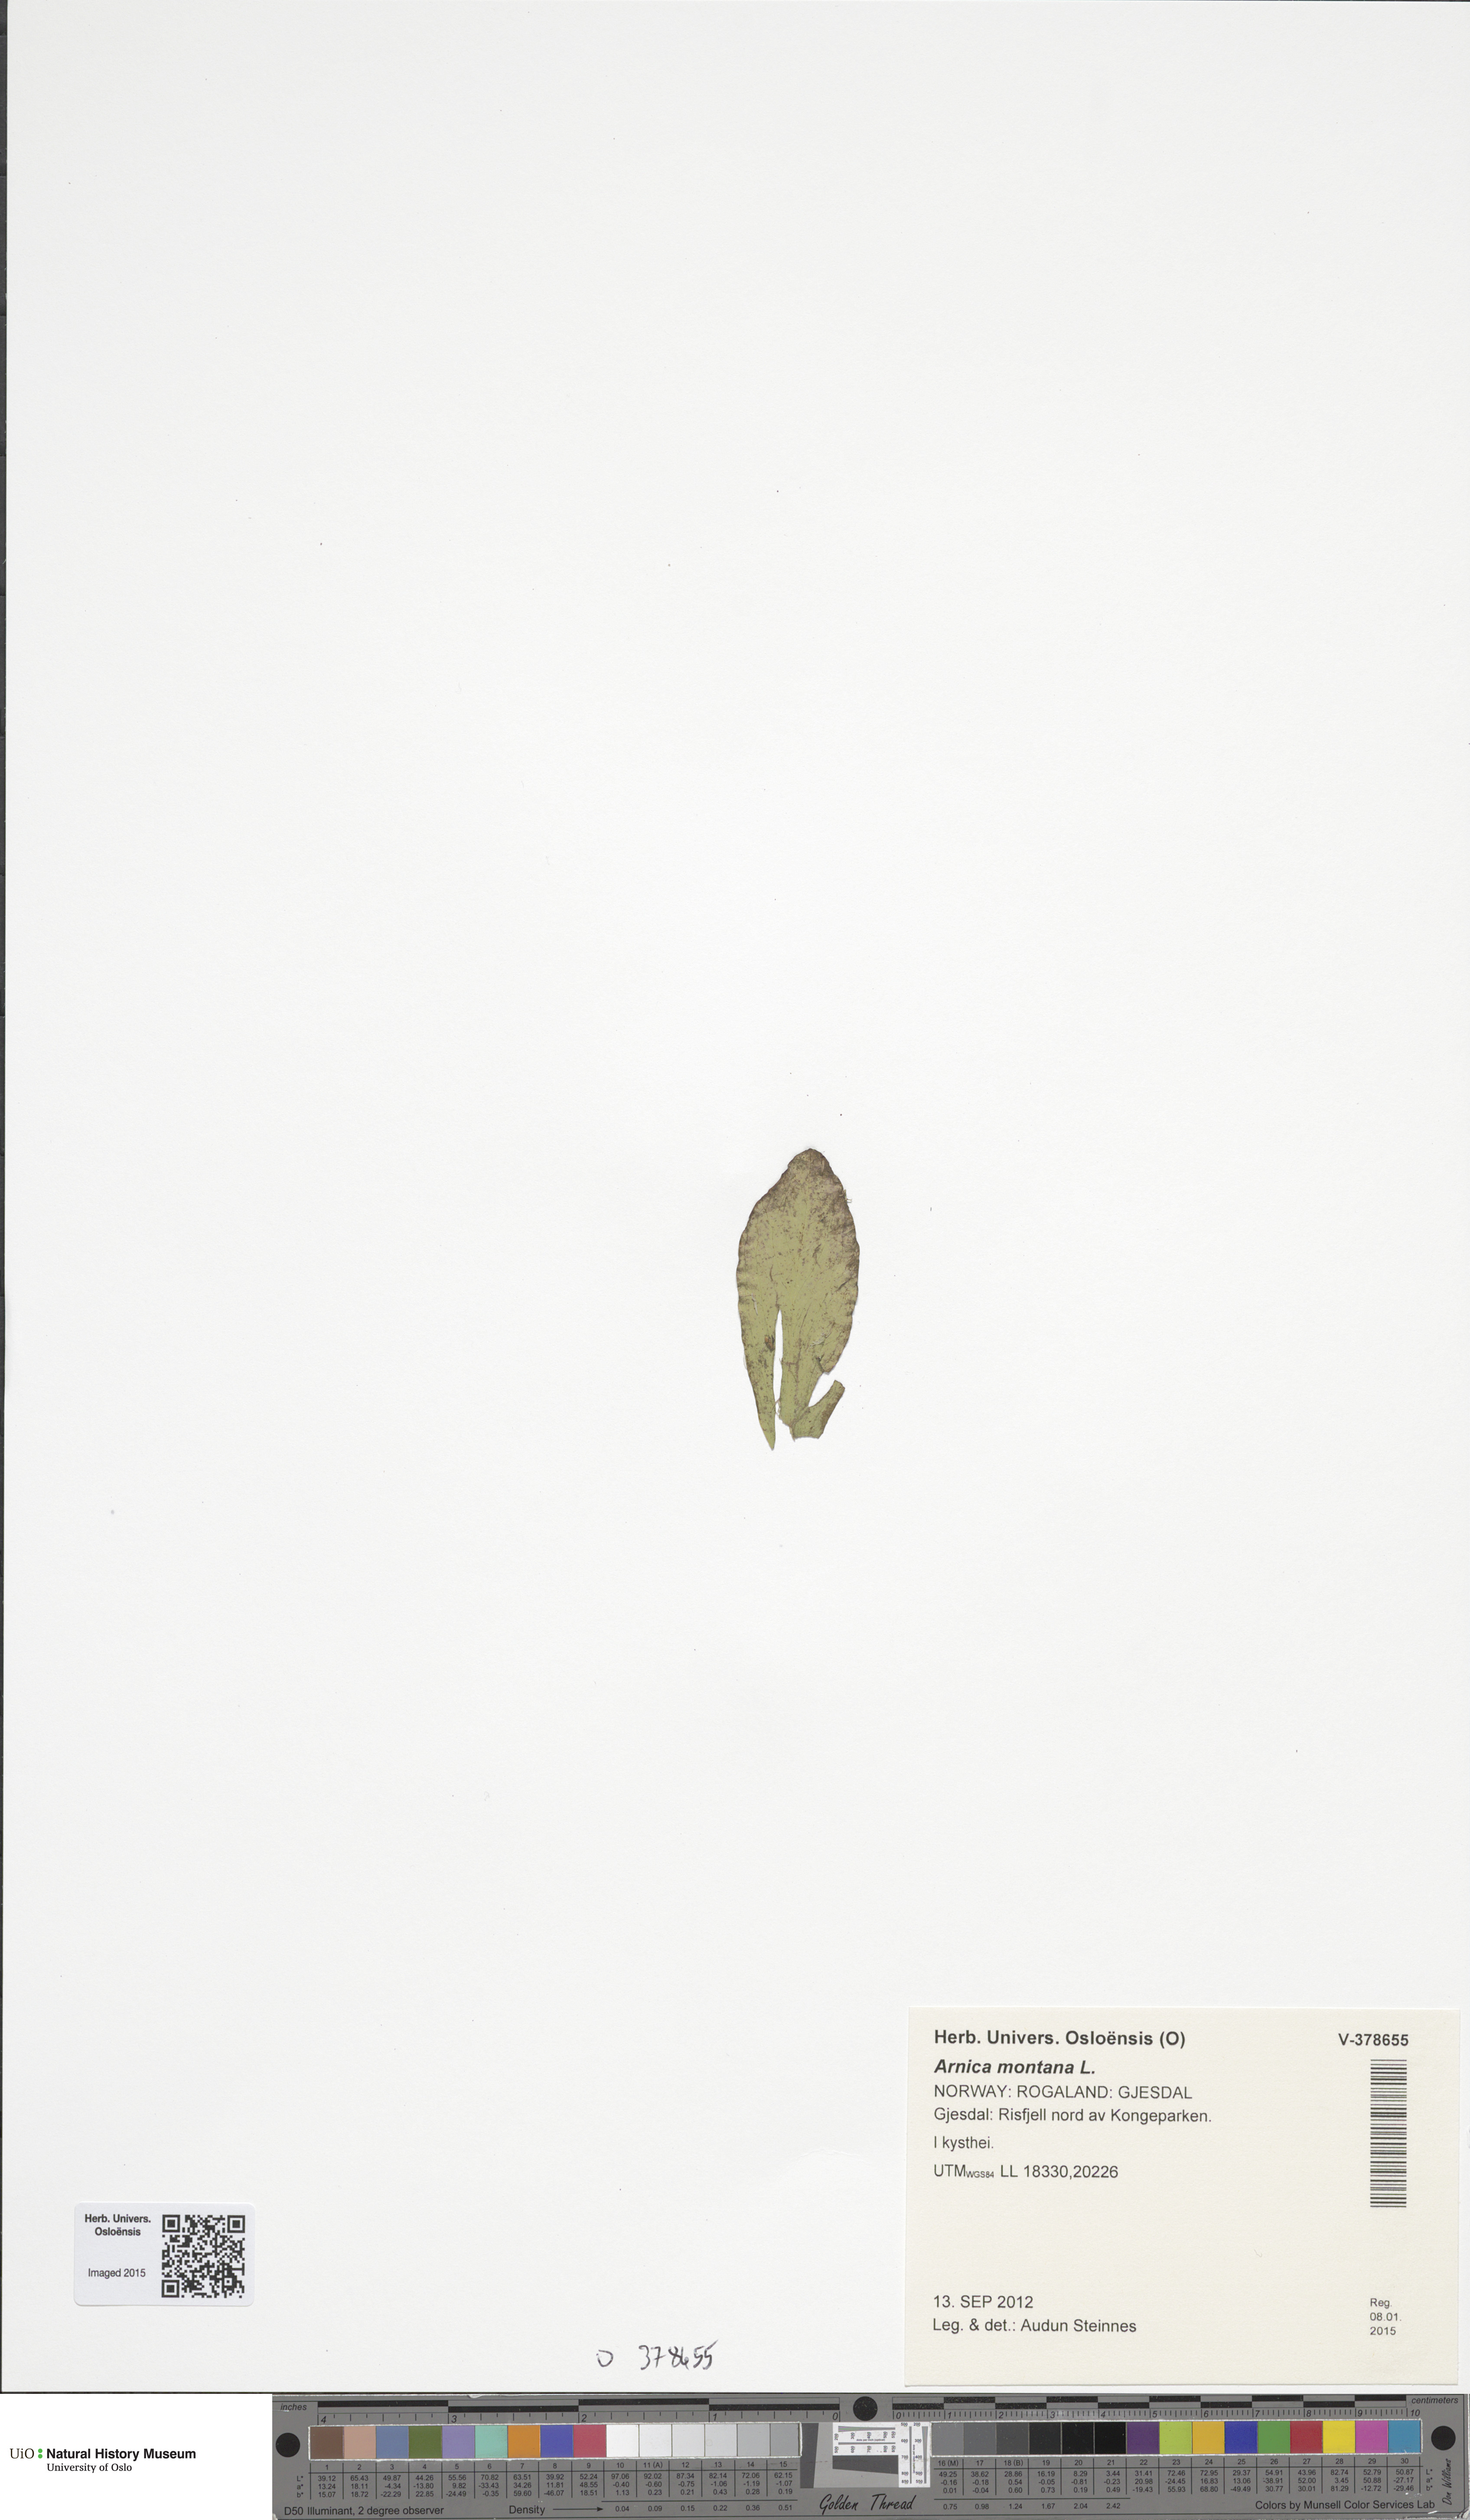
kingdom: Plantae
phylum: Tracheophyta
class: Magnoliopsida
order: Asterales
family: Asteraceae
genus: Arnica
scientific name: Arnica montana
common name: Leopard's bane
